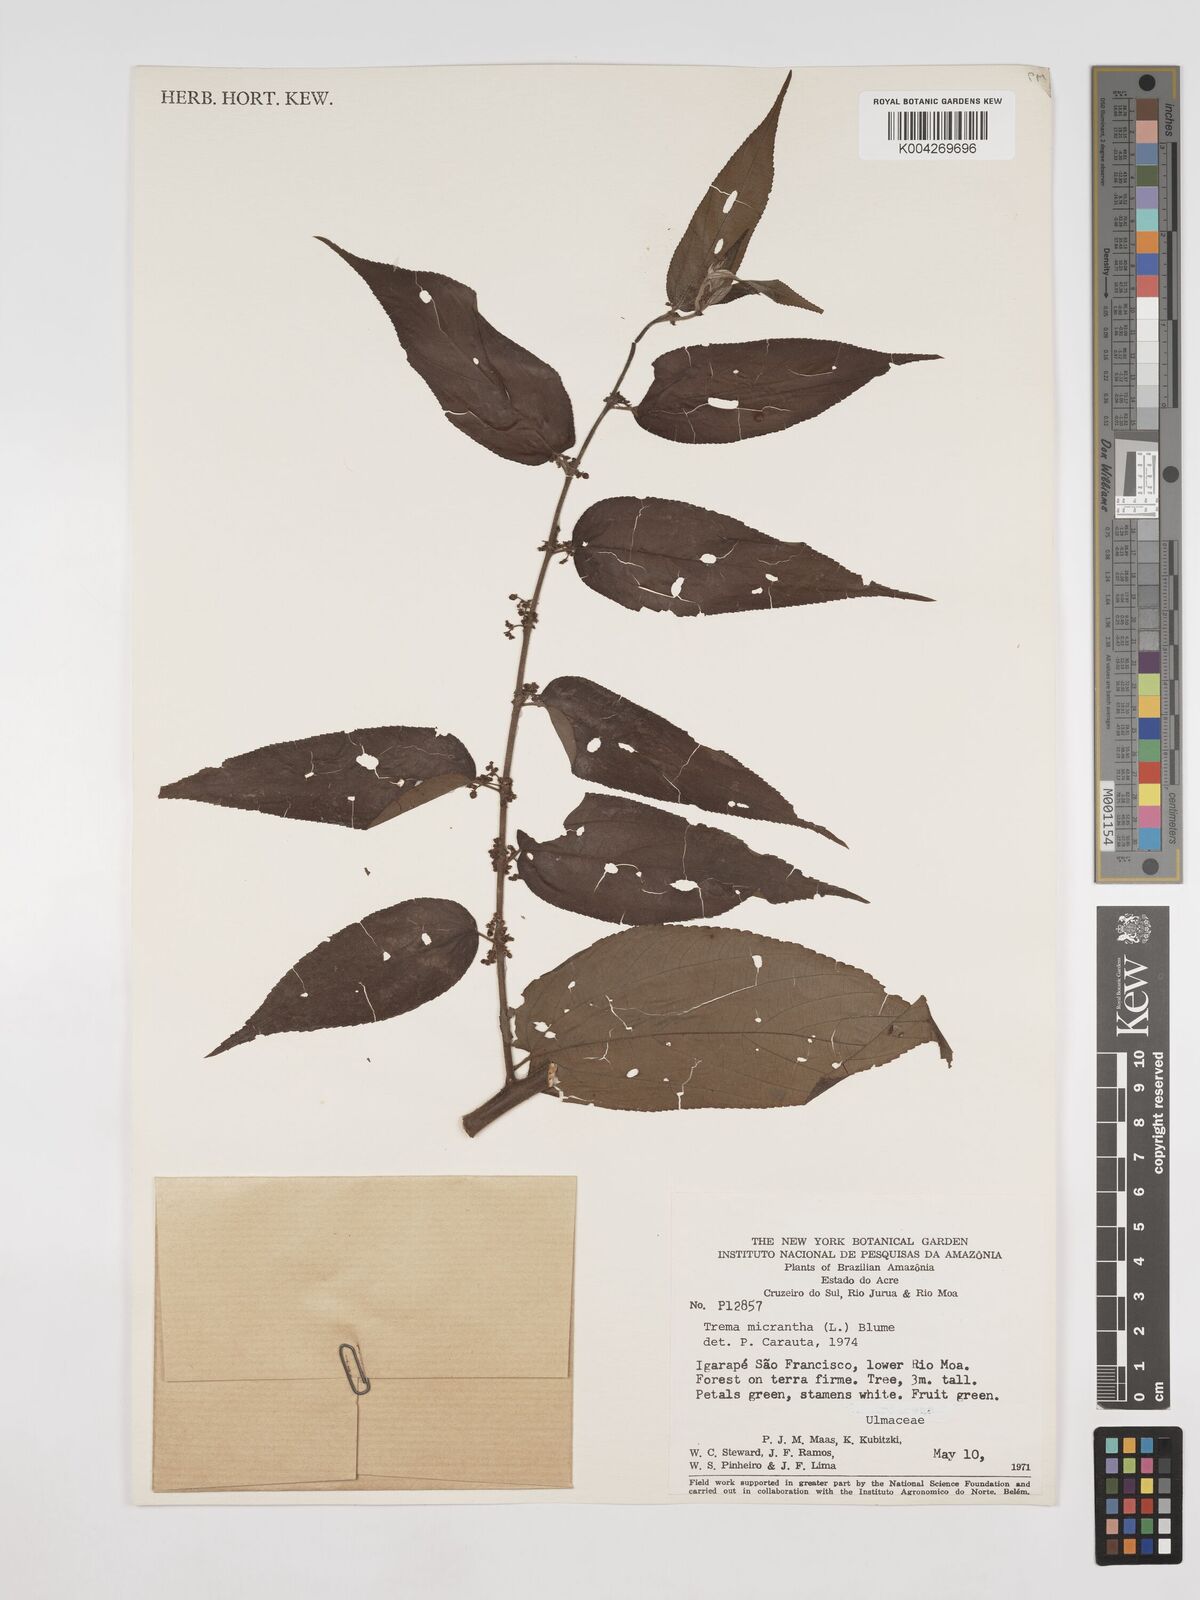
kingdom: Plantae
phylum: Tracheophyta
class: Magnoliopsida
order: Rosales
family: Cannabaceae
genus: Trema
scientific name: Trema micranthum
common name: Jamaican nettletree
